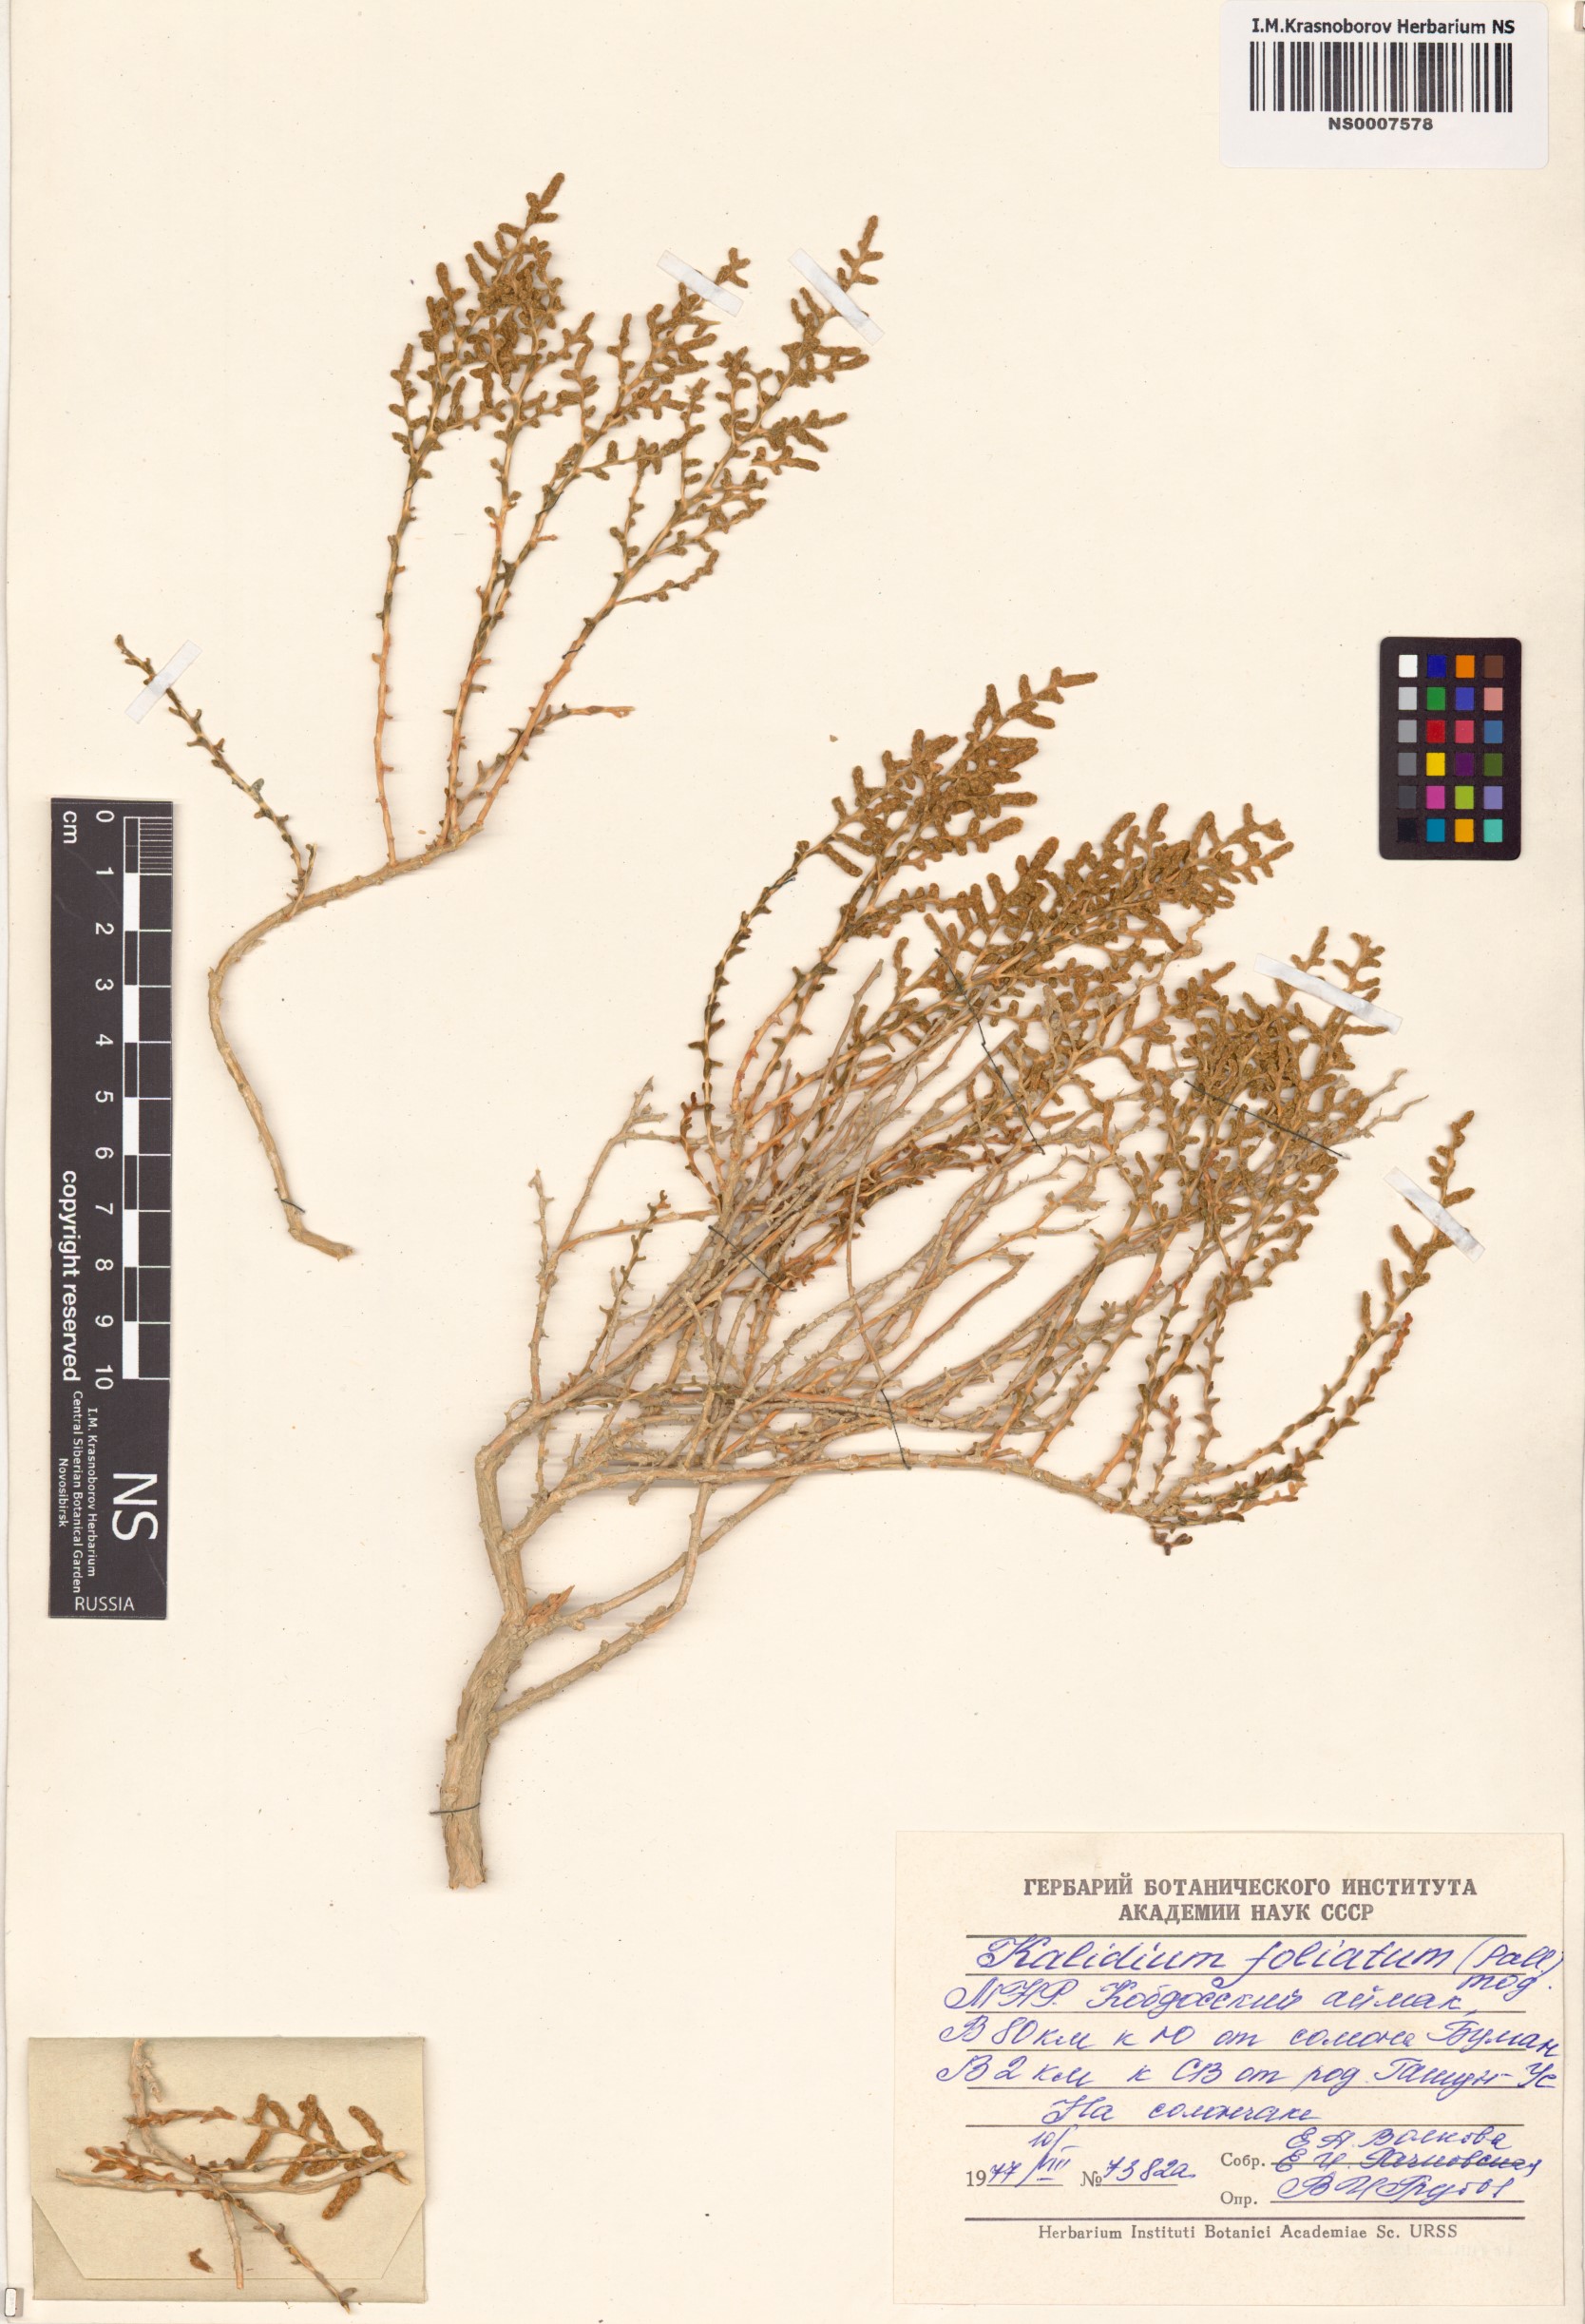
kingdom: Plantae
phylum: Tracheophyta
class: Magnoliopsida
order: Caryophyllales
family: Amaranthaceae
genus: Kalidium
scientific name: Kalidium foliatum
